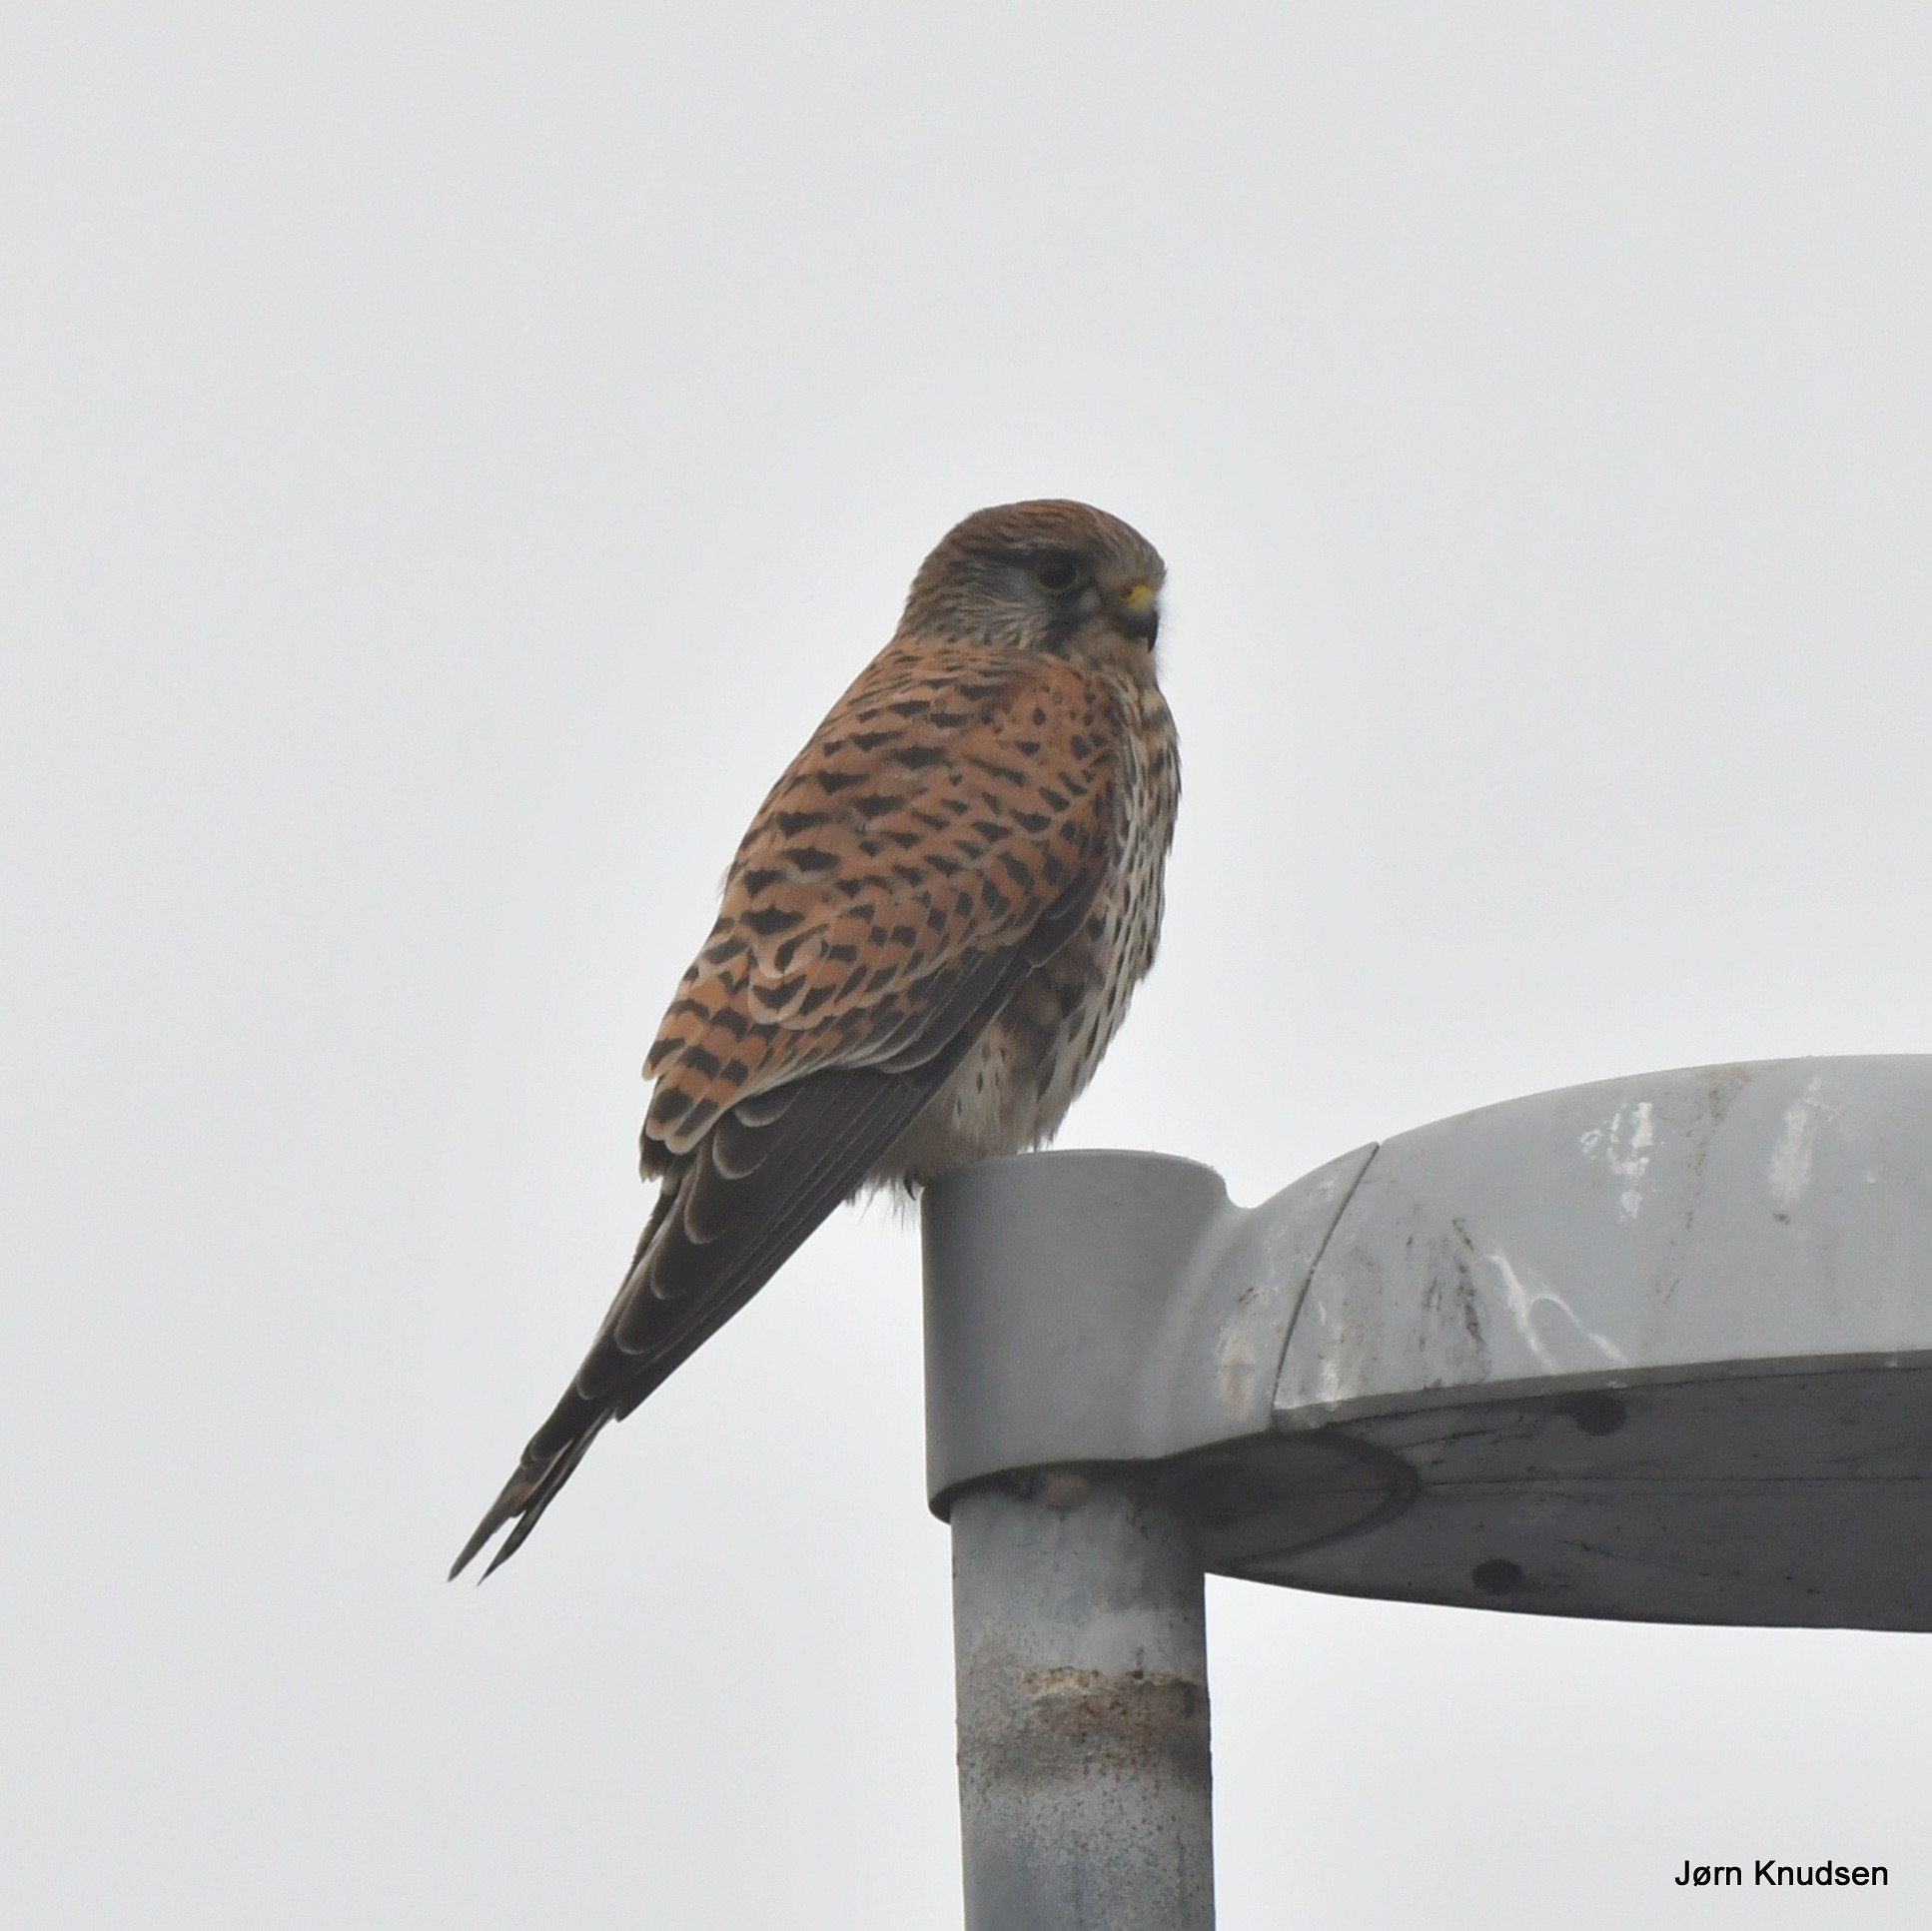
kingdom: Animalia
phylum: Chordata
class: Aves
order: Falconiformes
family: Falconidae
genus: Falco
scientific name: Falco tinnunculus
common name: Tårnfalk
